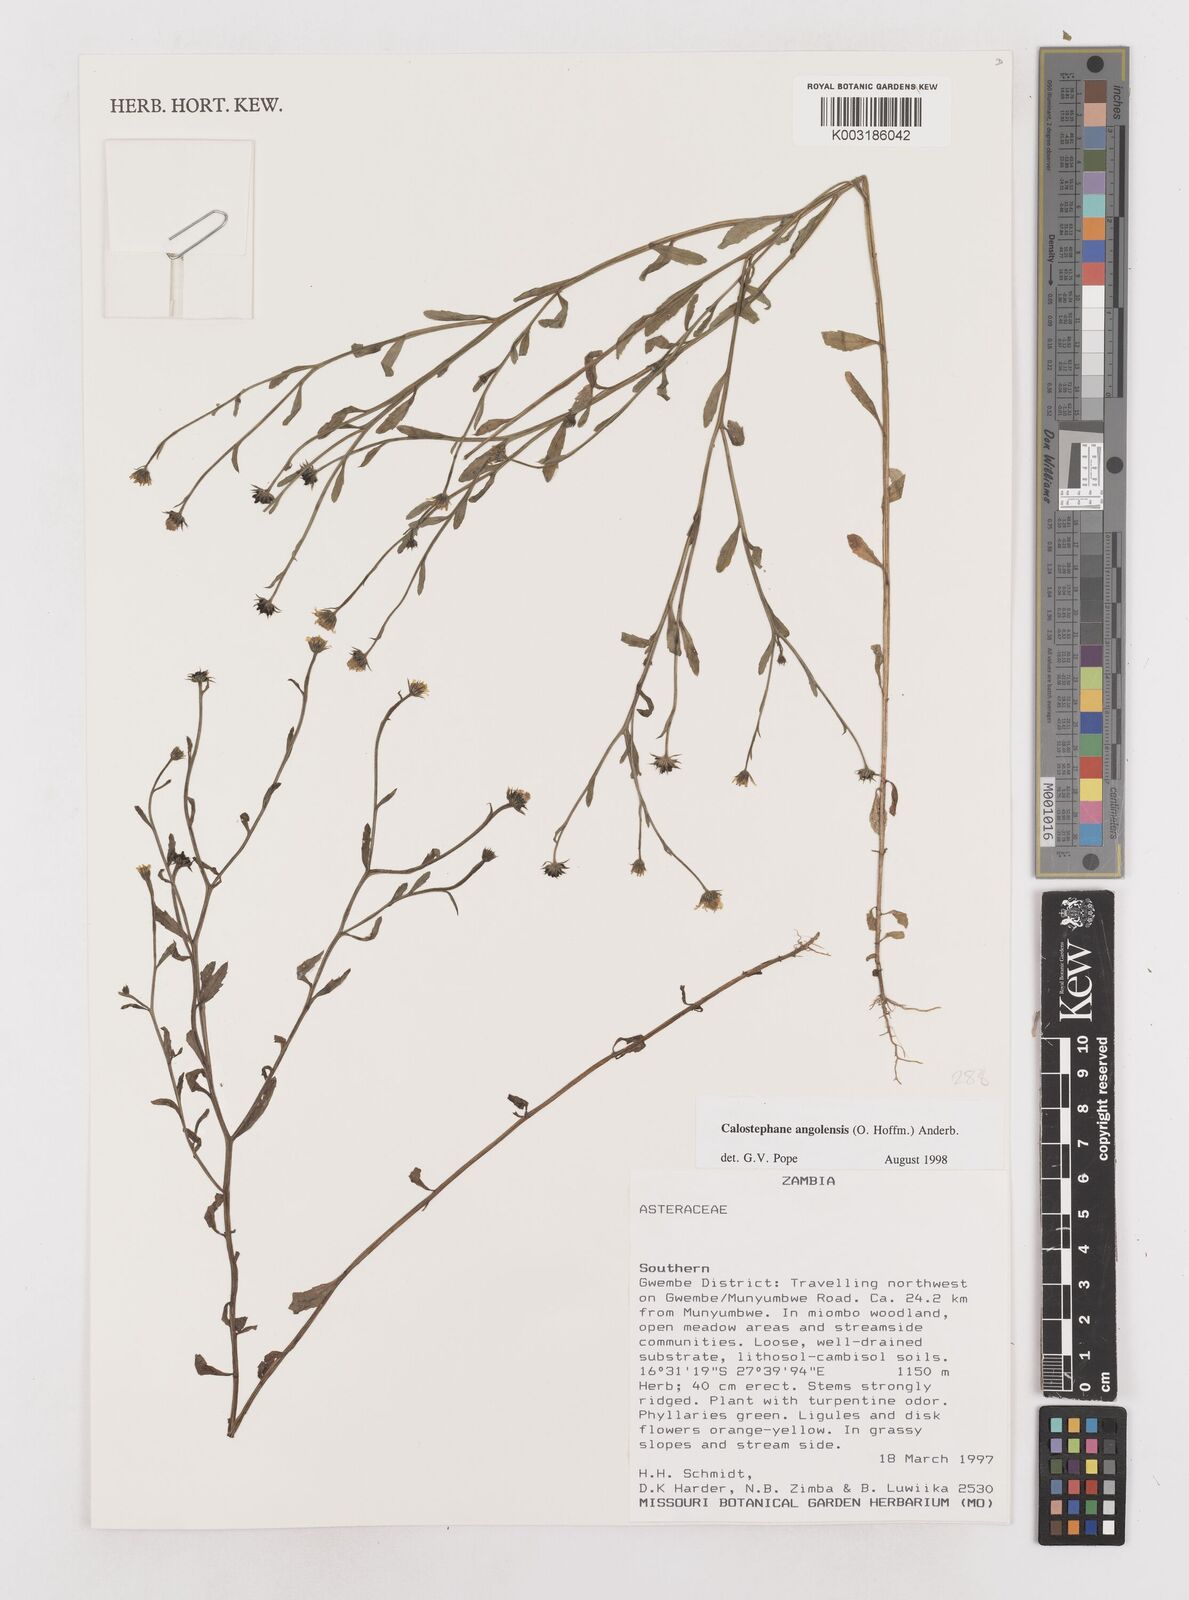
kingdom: Plantae
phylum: Tracheophyta
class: Magnoliopsida
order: Asterales
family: Asteraceae
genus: Calostephane
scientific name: Calostephane angolensis
